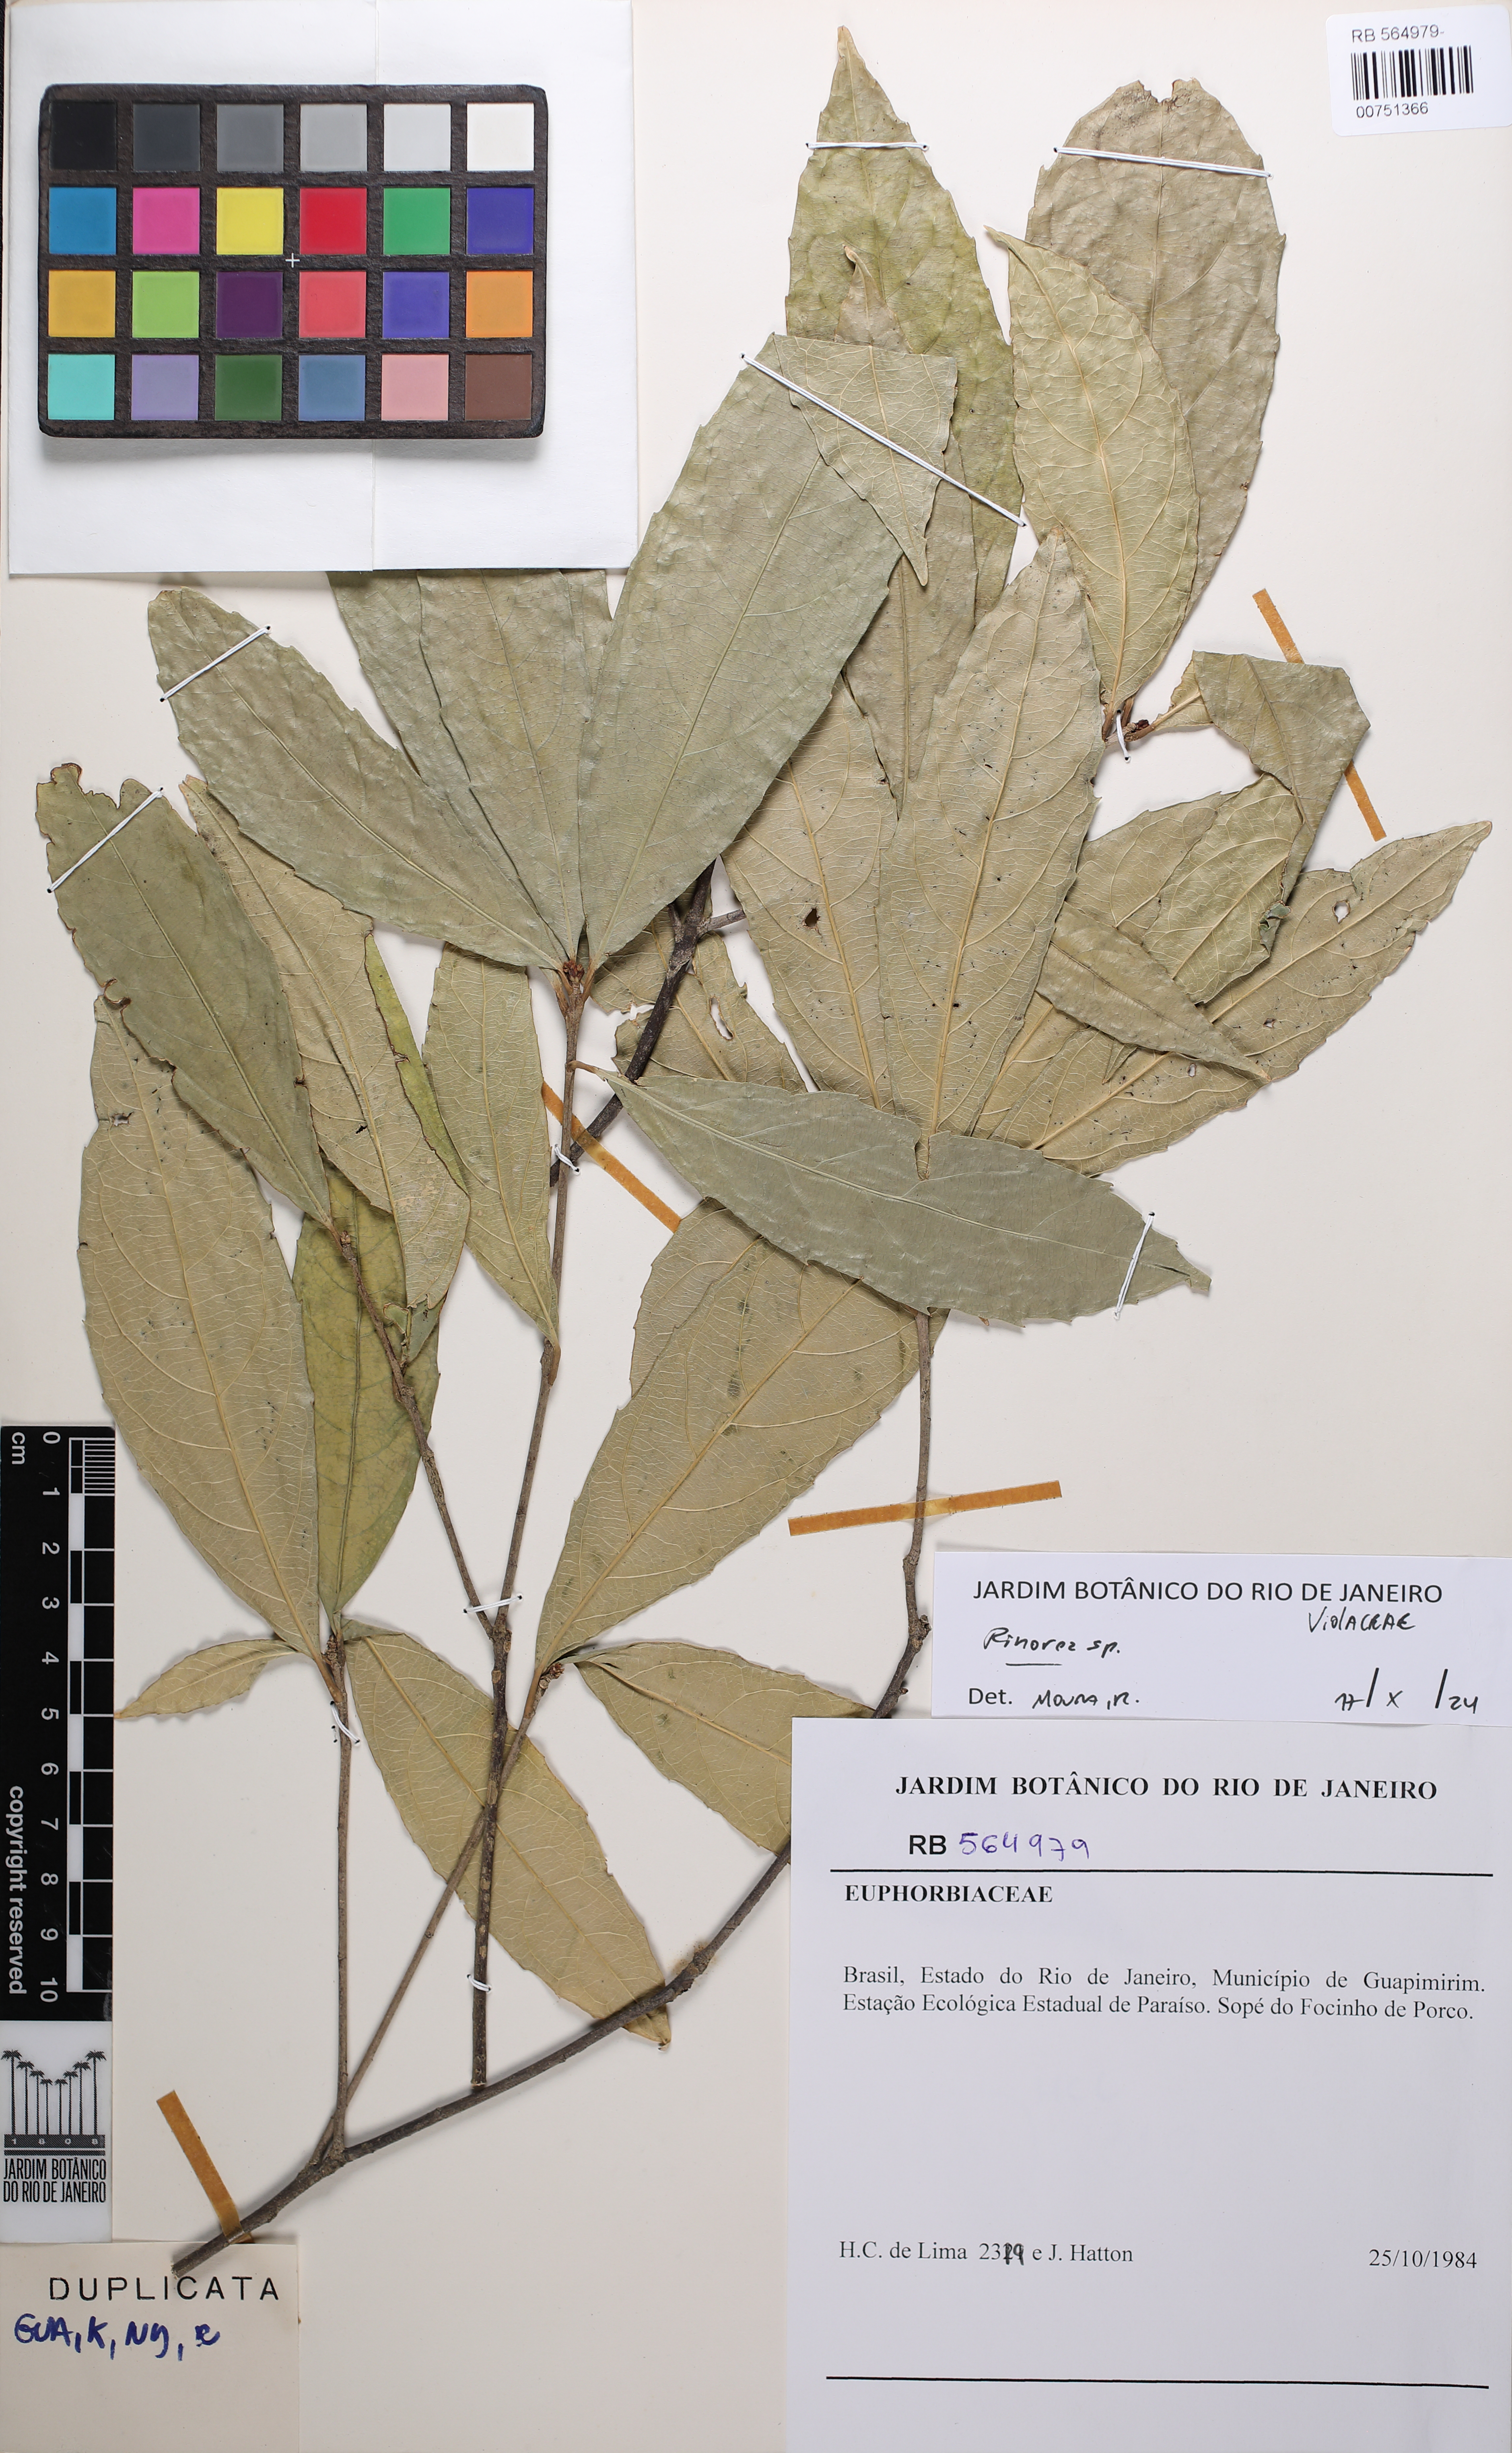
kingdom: Plantae
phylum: Tracheophyta
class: Magnoliopsida
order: Malpighiales
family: Euphorbiaceae
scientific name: Euphorbiaceae
